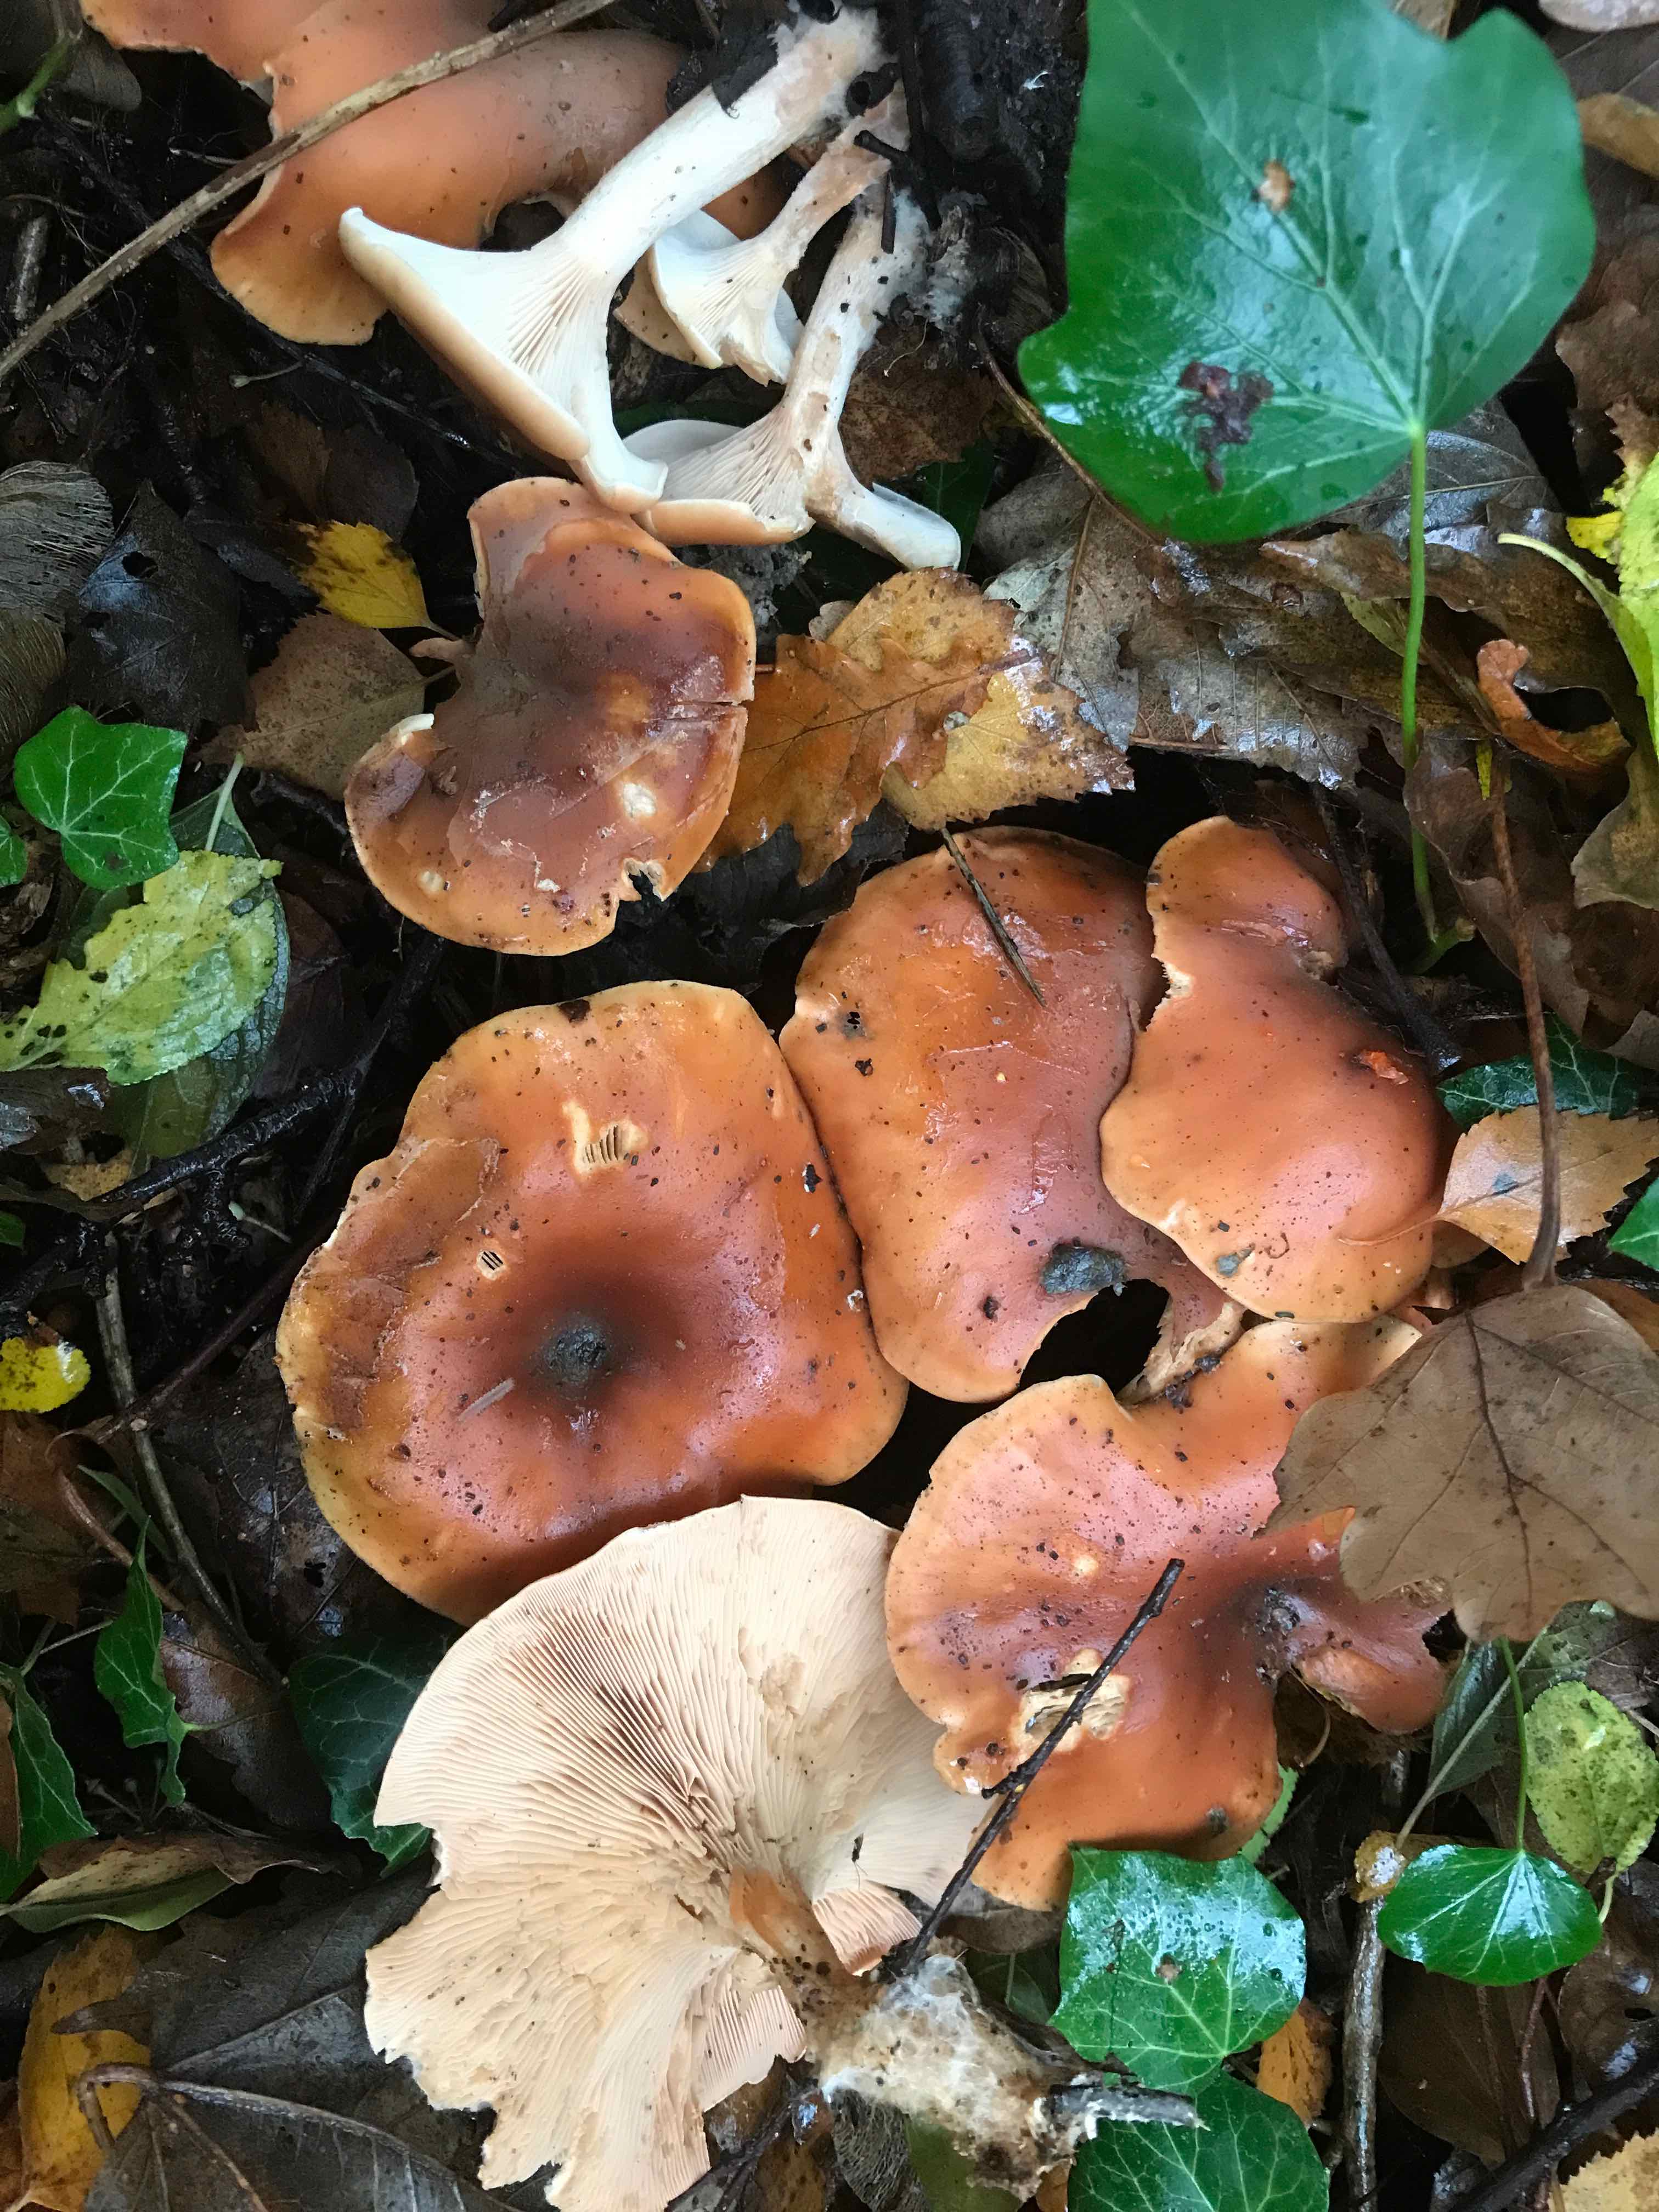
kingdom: Fungi
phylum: Basidiomycota
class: Agaricomycetes
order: Agaricales
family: Tricholomataceae
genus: Paralepista
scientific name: Paralepista flaccida
